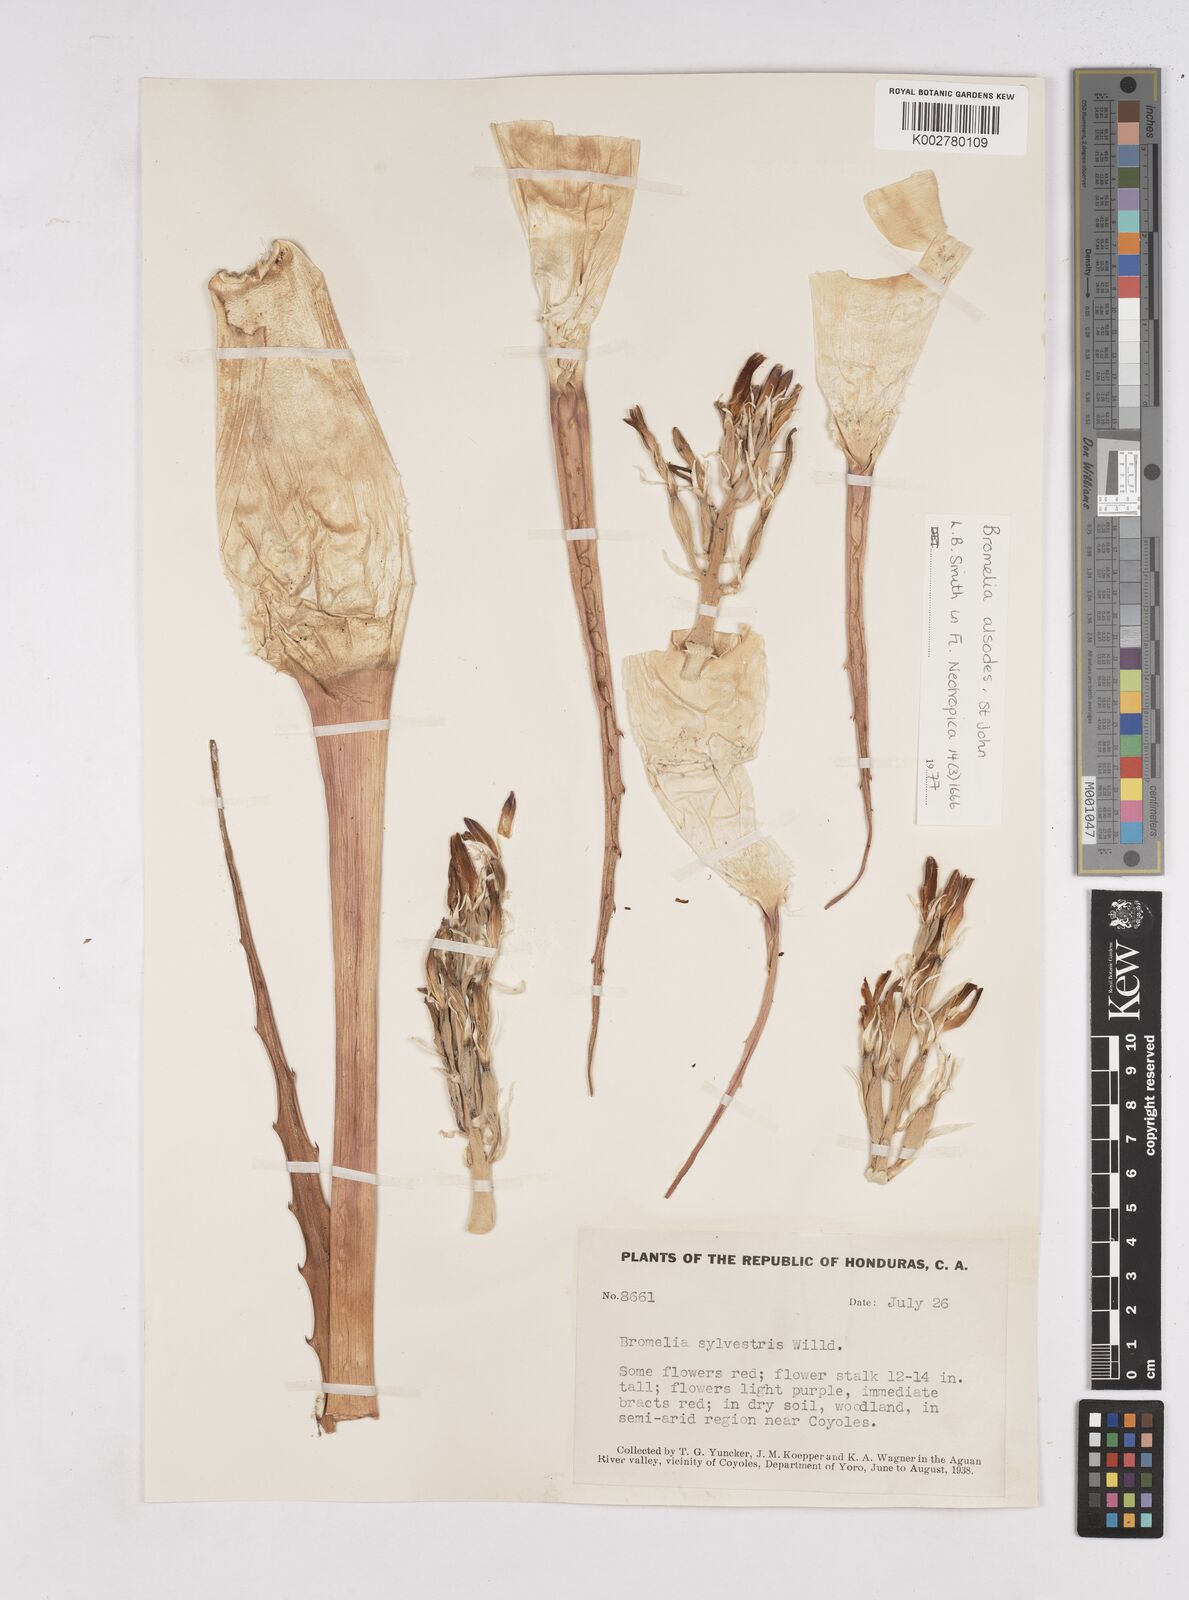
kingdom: Plantae
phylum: Tracheophyta
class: Liliopsida
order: Poales
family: Bromeliaceae
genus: Bromelia
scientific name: Bromelia alsodes
